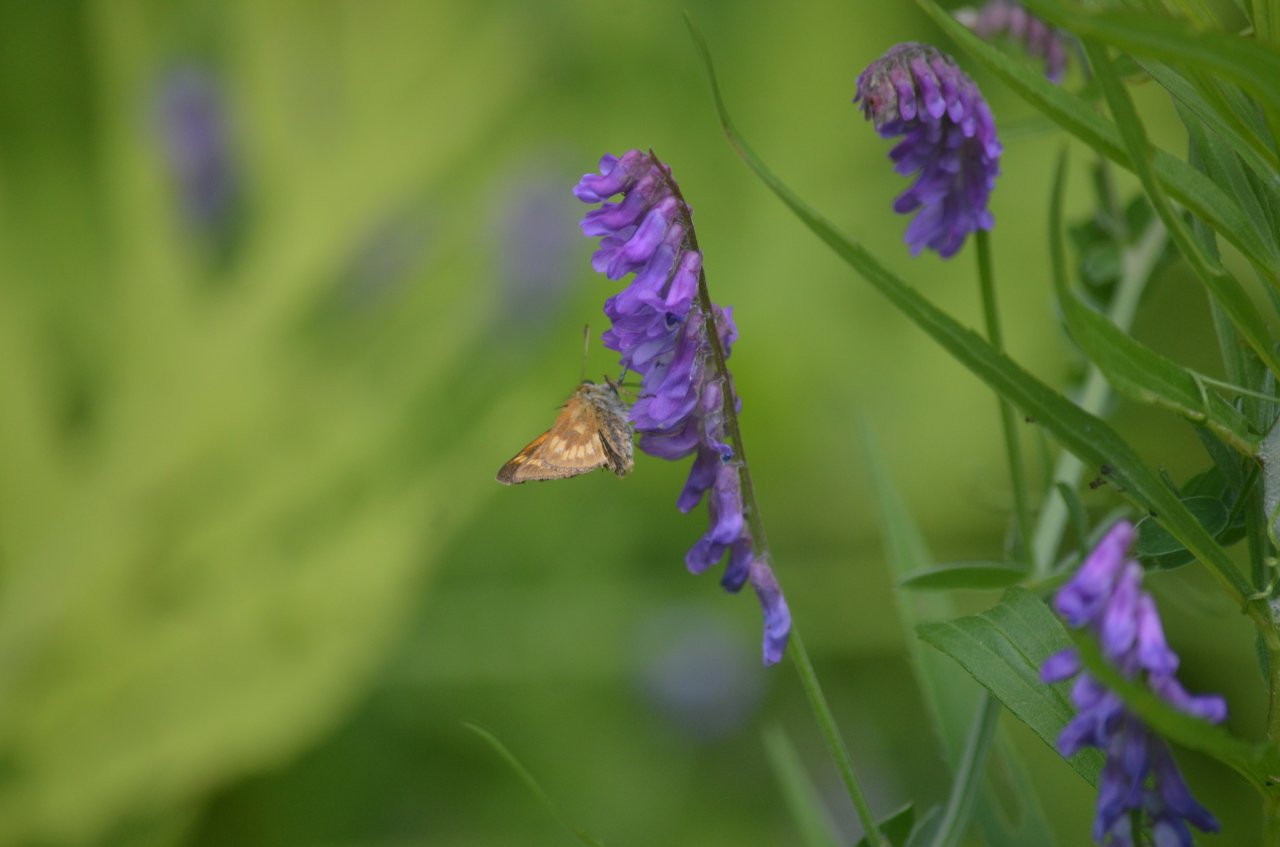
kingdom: Animalia
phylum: Arthropoda
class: Insecta
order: Lepidoptera
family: Hesperiidae
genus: Polites
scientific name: Polites
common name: Long Dash Skipper
